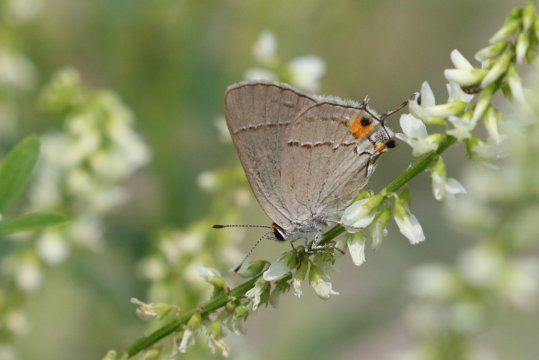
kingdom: Animalia
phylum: Arthropoda
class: Insecta
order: Lepidoptera
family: Lycaenidae
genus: Strymon
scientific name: Strymon melinus
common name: Gray Hairstreak
